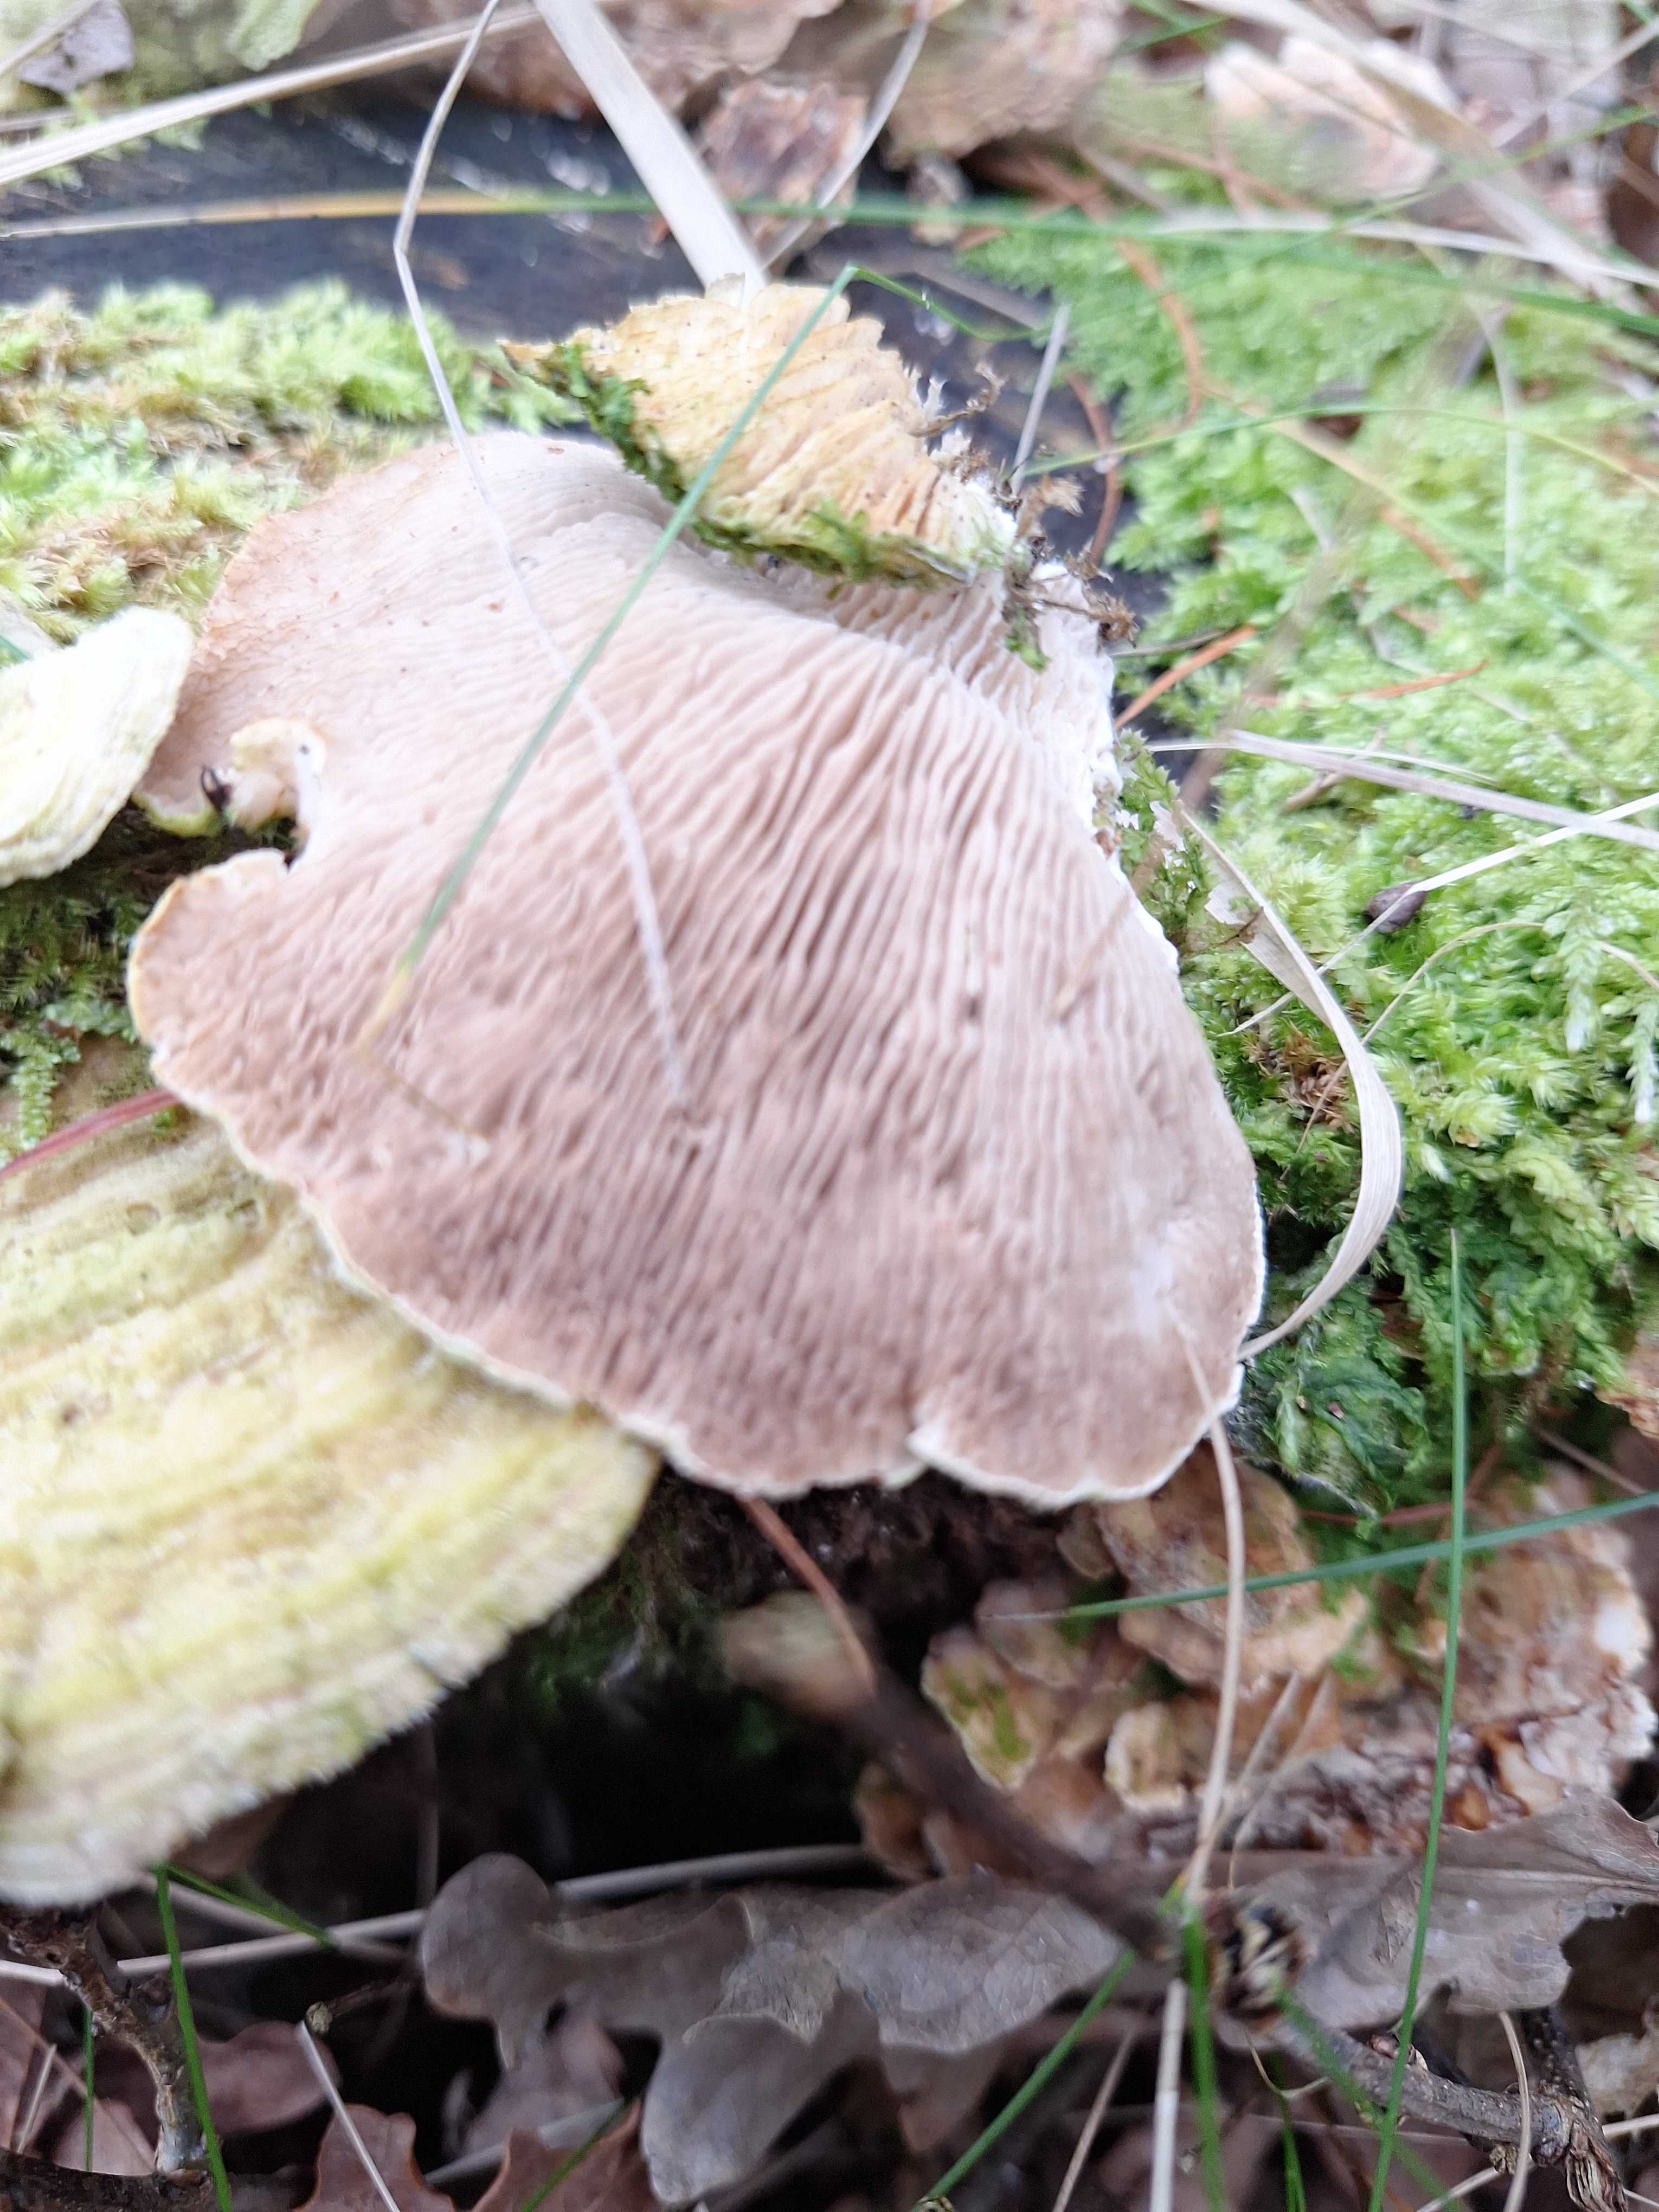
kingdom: Fungi
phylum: Basidiomycota
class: Agaricomycetes
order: Polyporales
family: Polyporaceae
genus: Lenzites
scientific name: Lenzites betulinus
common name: birke-læderporesvamp
